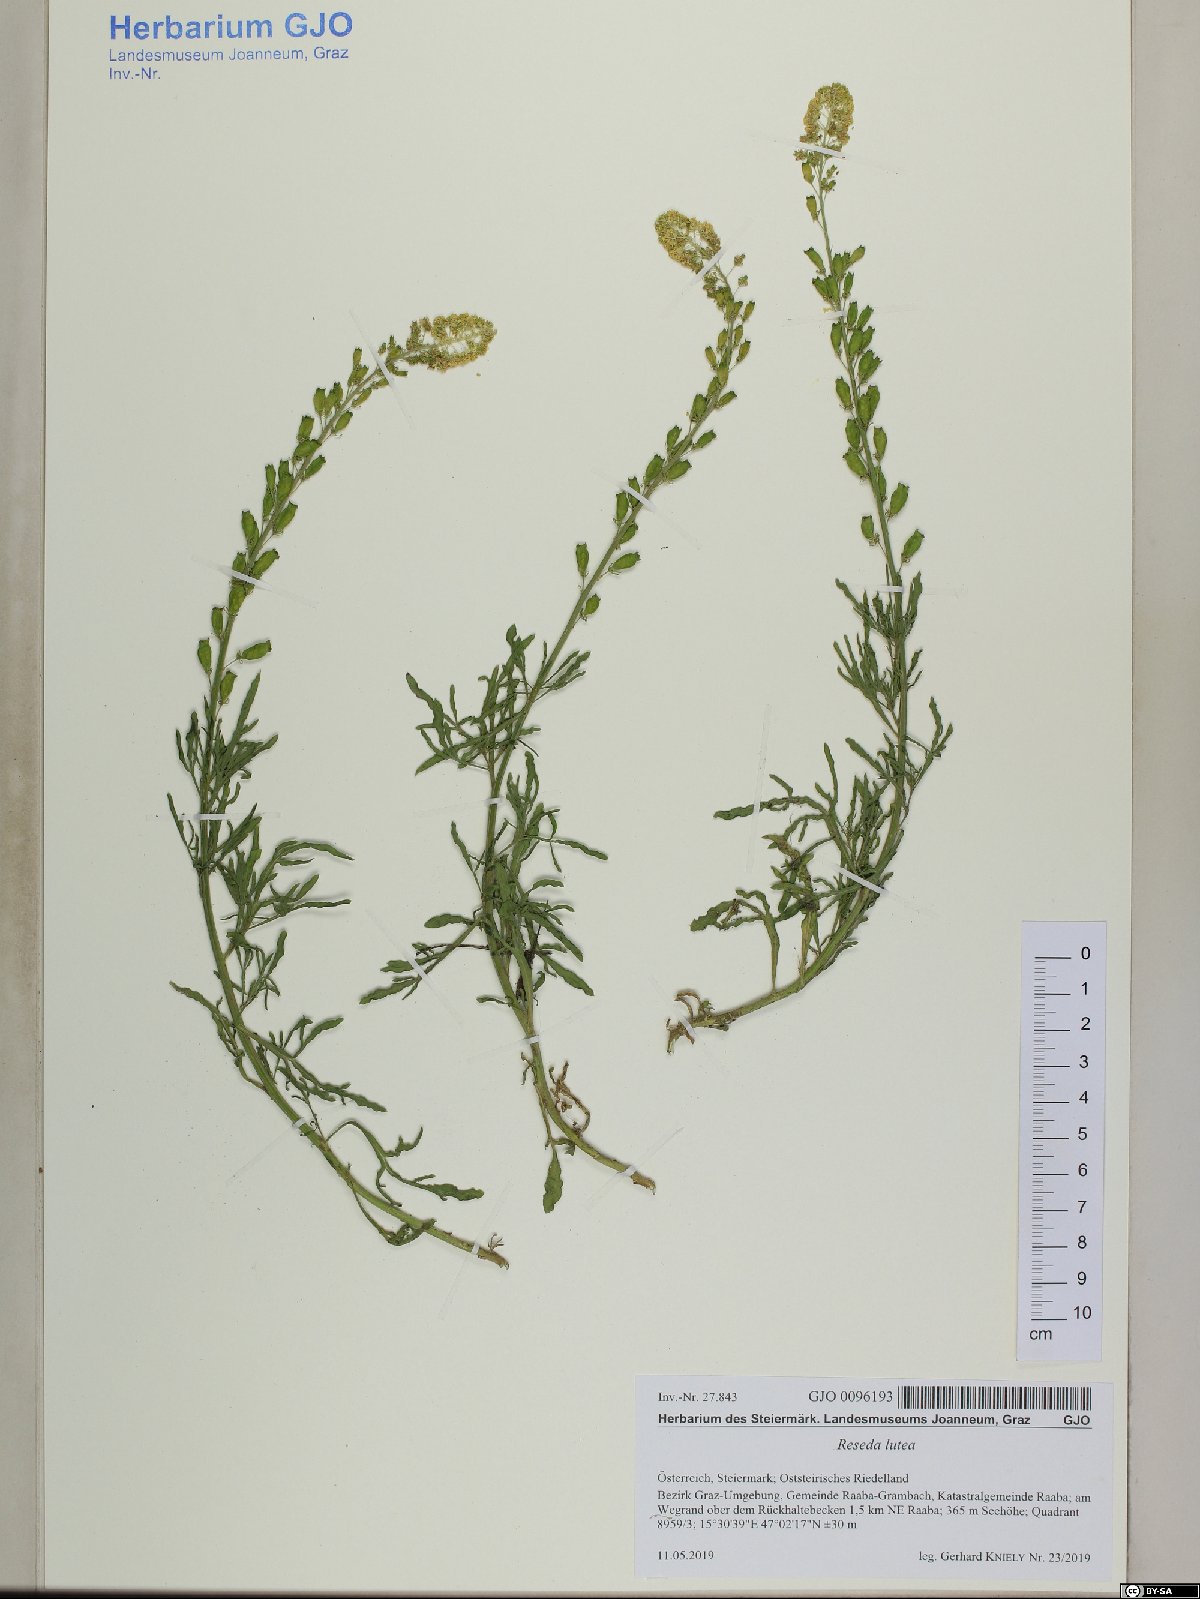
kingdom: Plantae
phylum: Tracheophyta
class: Magnoliopsida
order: Brassicales
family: Resedaceae
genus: Reseda
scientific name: Reseda lutea
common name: Wild mignonette
